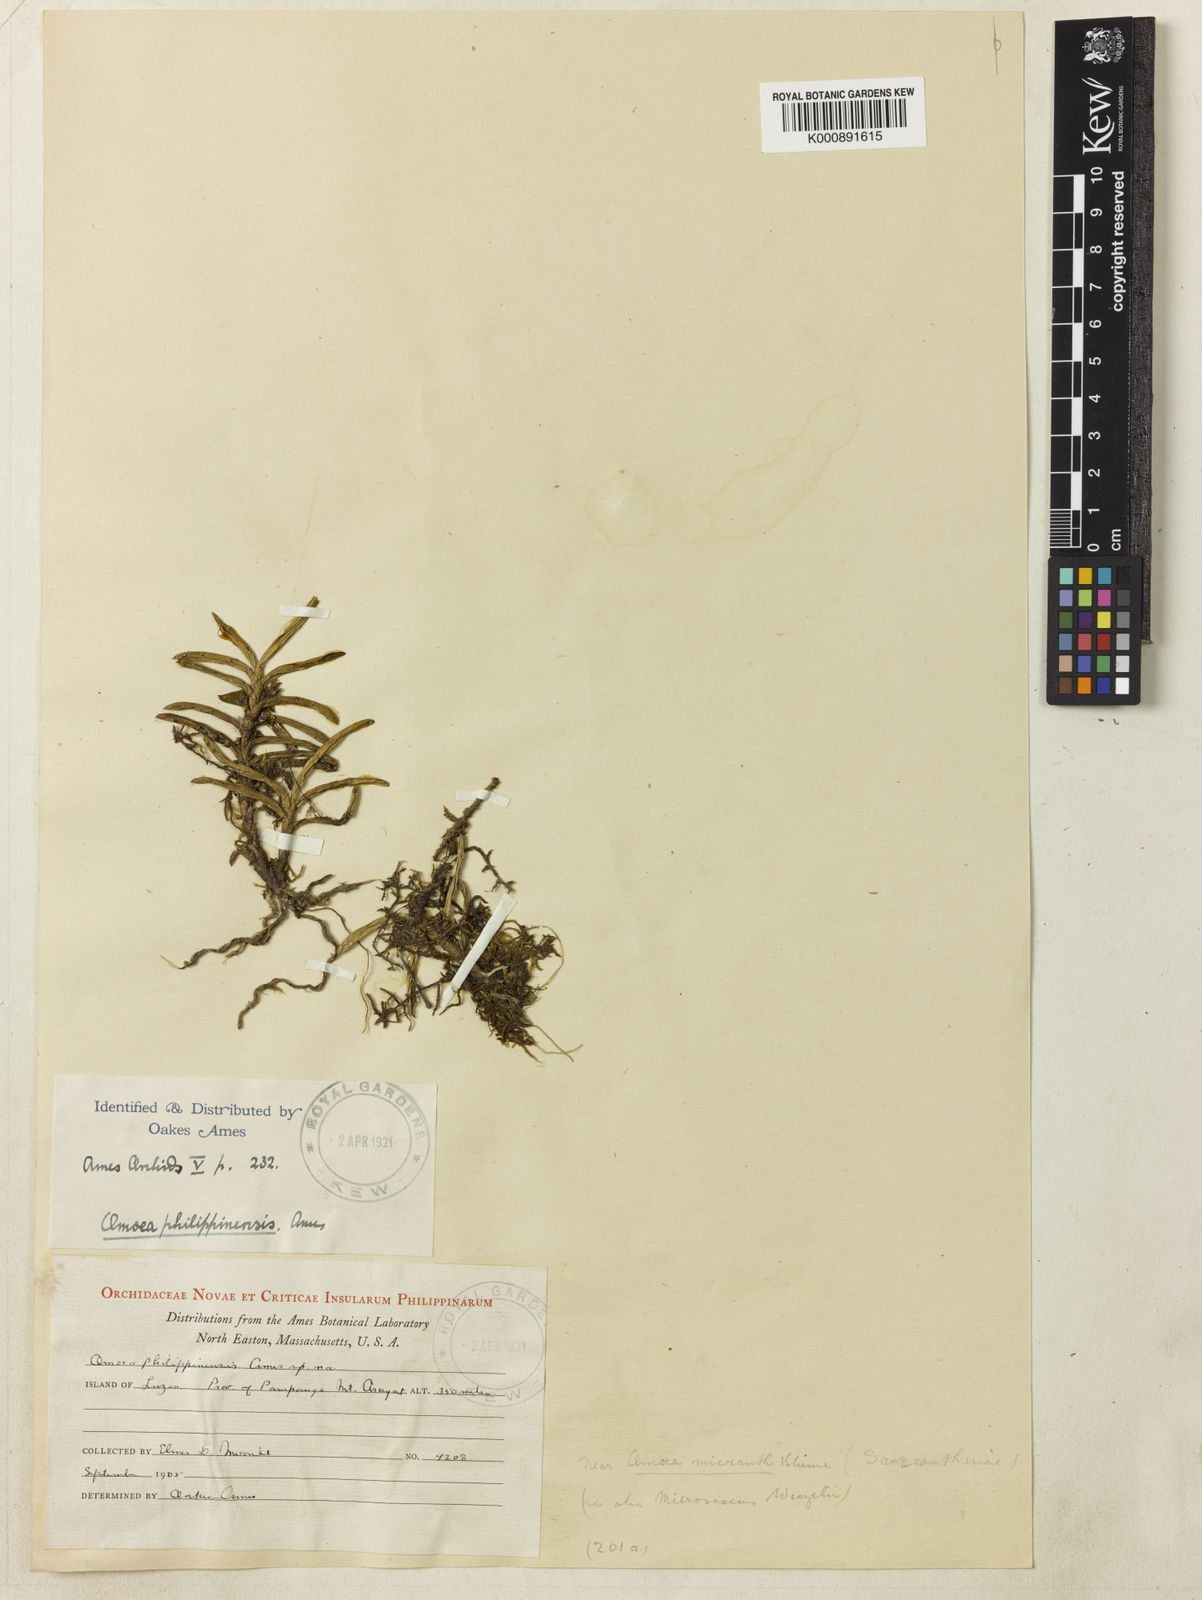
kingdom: Plantae
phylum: Tracheophyta
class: Liliopsida
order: Asparagales
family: Orchidaceae
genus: Omoea
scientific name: Omoea philippinensis
